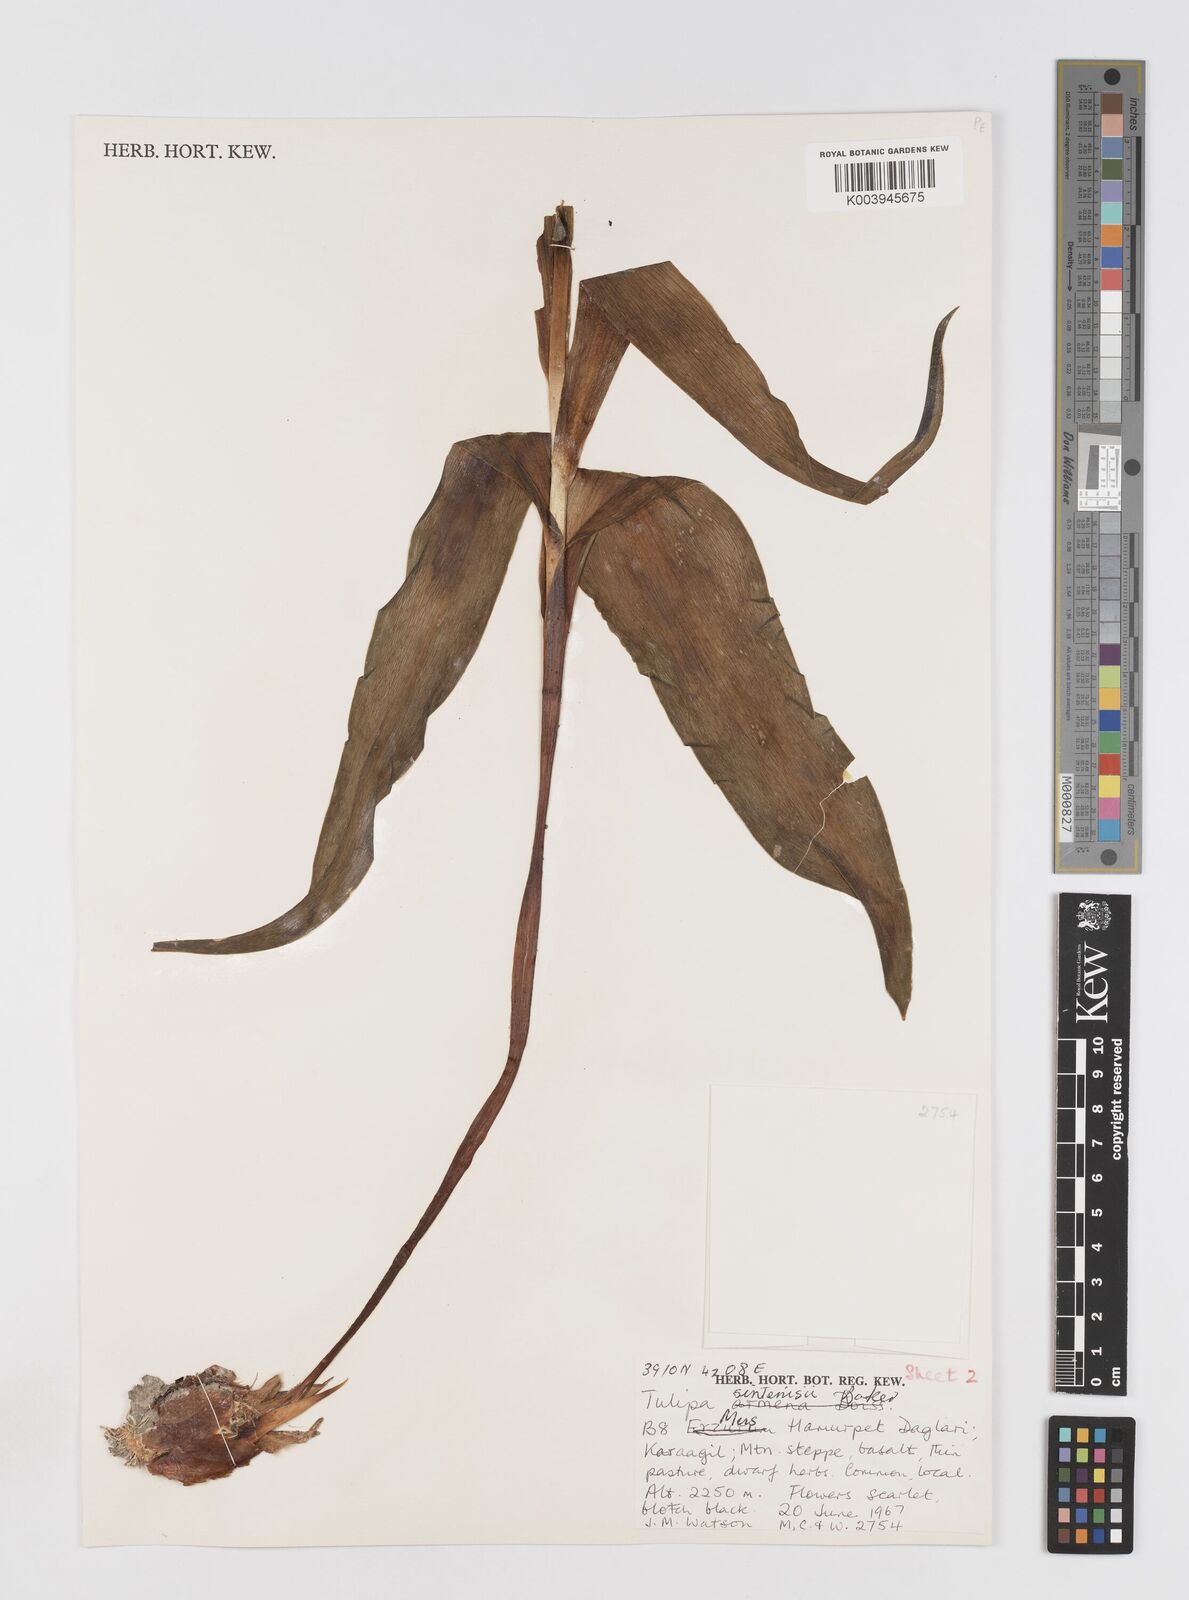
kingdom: Plantae
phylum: Tracheophyta
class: Liliopsida
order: Liliales
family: Liliaceae
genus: Tulipa
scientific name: Tulipa aleppensis
